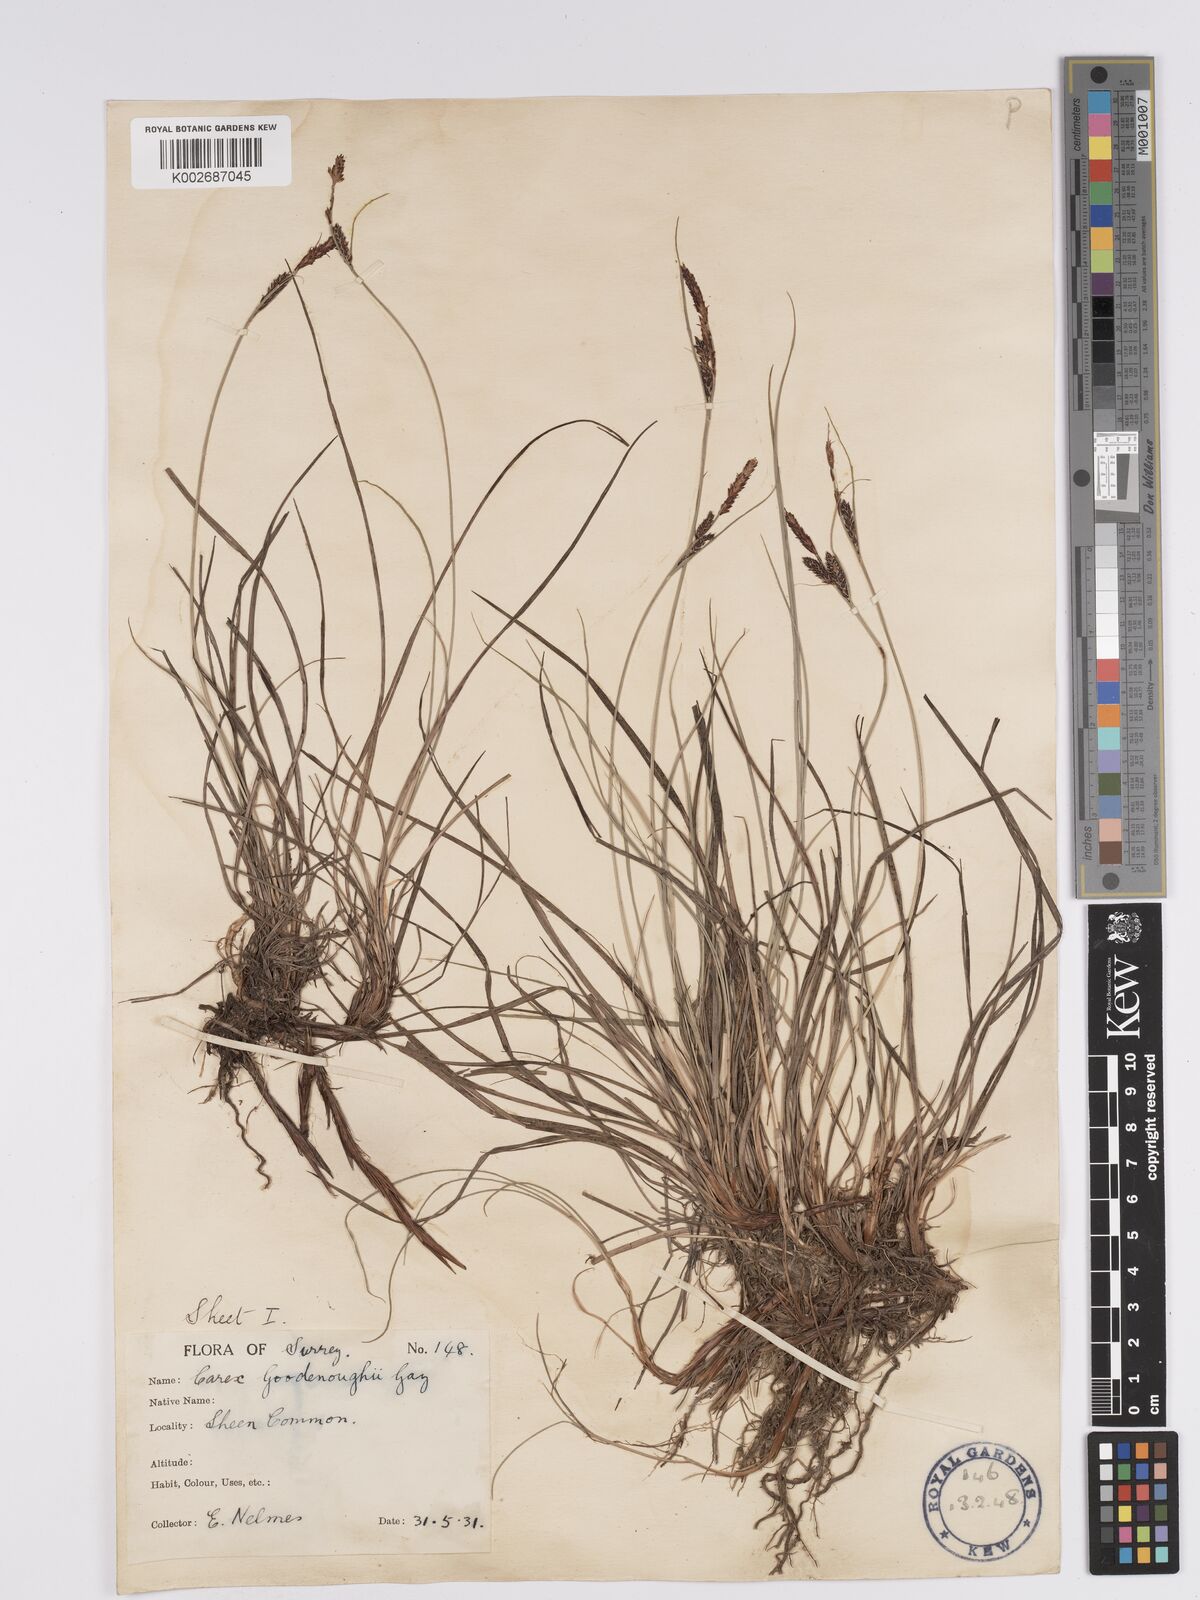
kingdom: Plantae
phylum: Tracheophyta
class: Liliopsida
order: Poales
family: Cyperaceae
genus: Carex
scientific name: Carex nigra
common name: Common sedge
